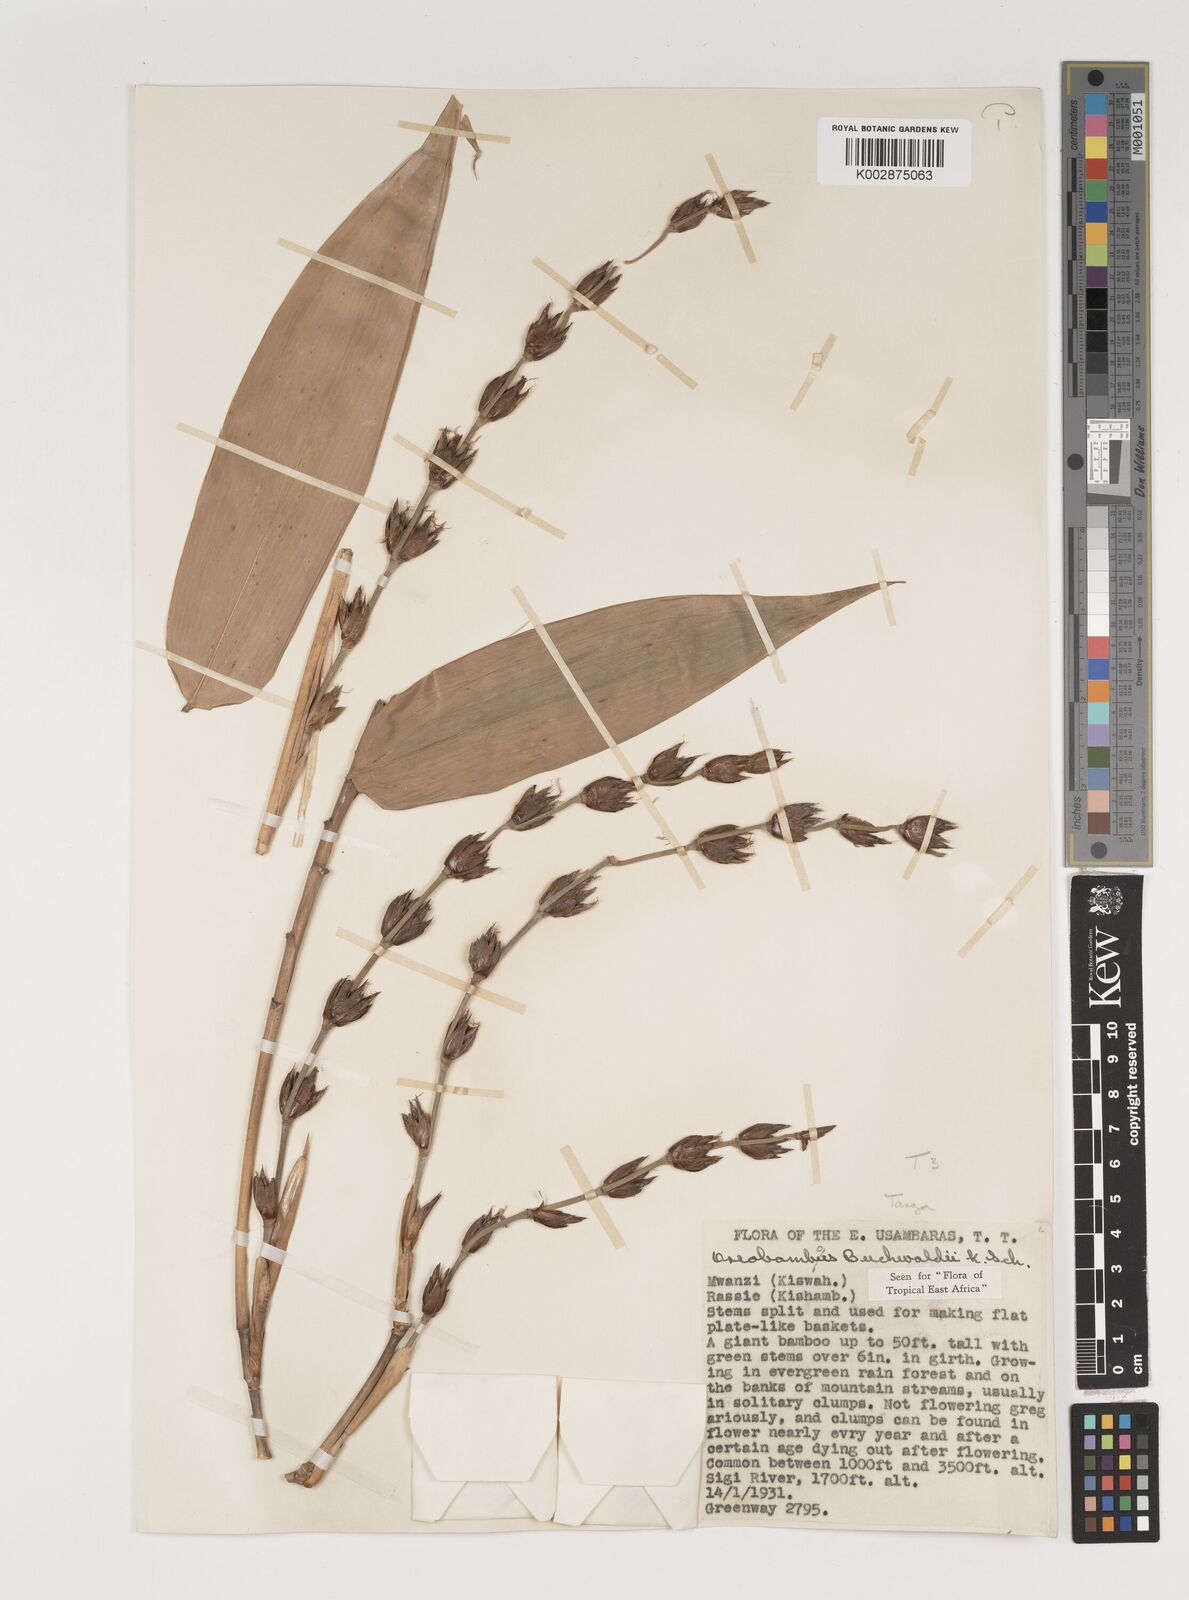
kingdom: Plantae
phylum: Tracheophyta
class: Liliopsida
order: Poales
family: Poaceae
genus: Oreobambos
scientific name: Oreobambos buchwaldii
